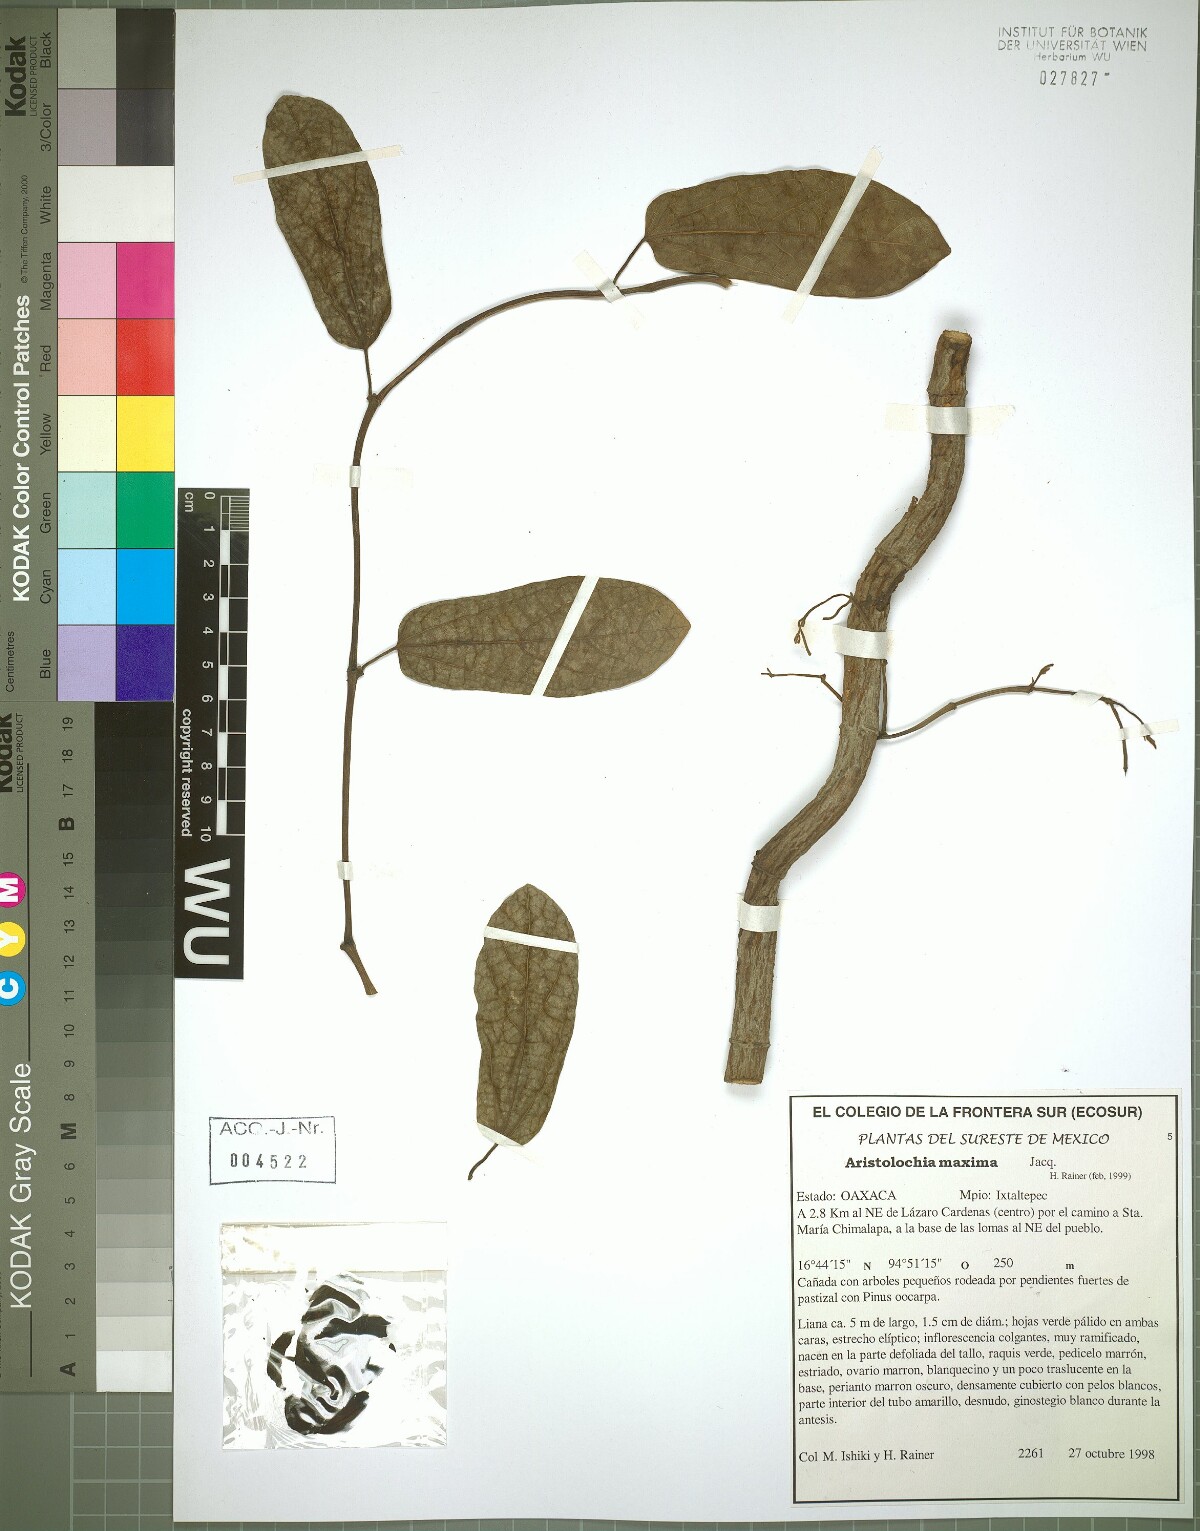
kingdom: Plantae
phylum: Tracheophyta
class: Magnoliopsida
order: Piperales
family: Aristolochiaceae
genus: Aristolochia
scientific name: Aristolochia maxima
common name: Florida dutchman's pipe
